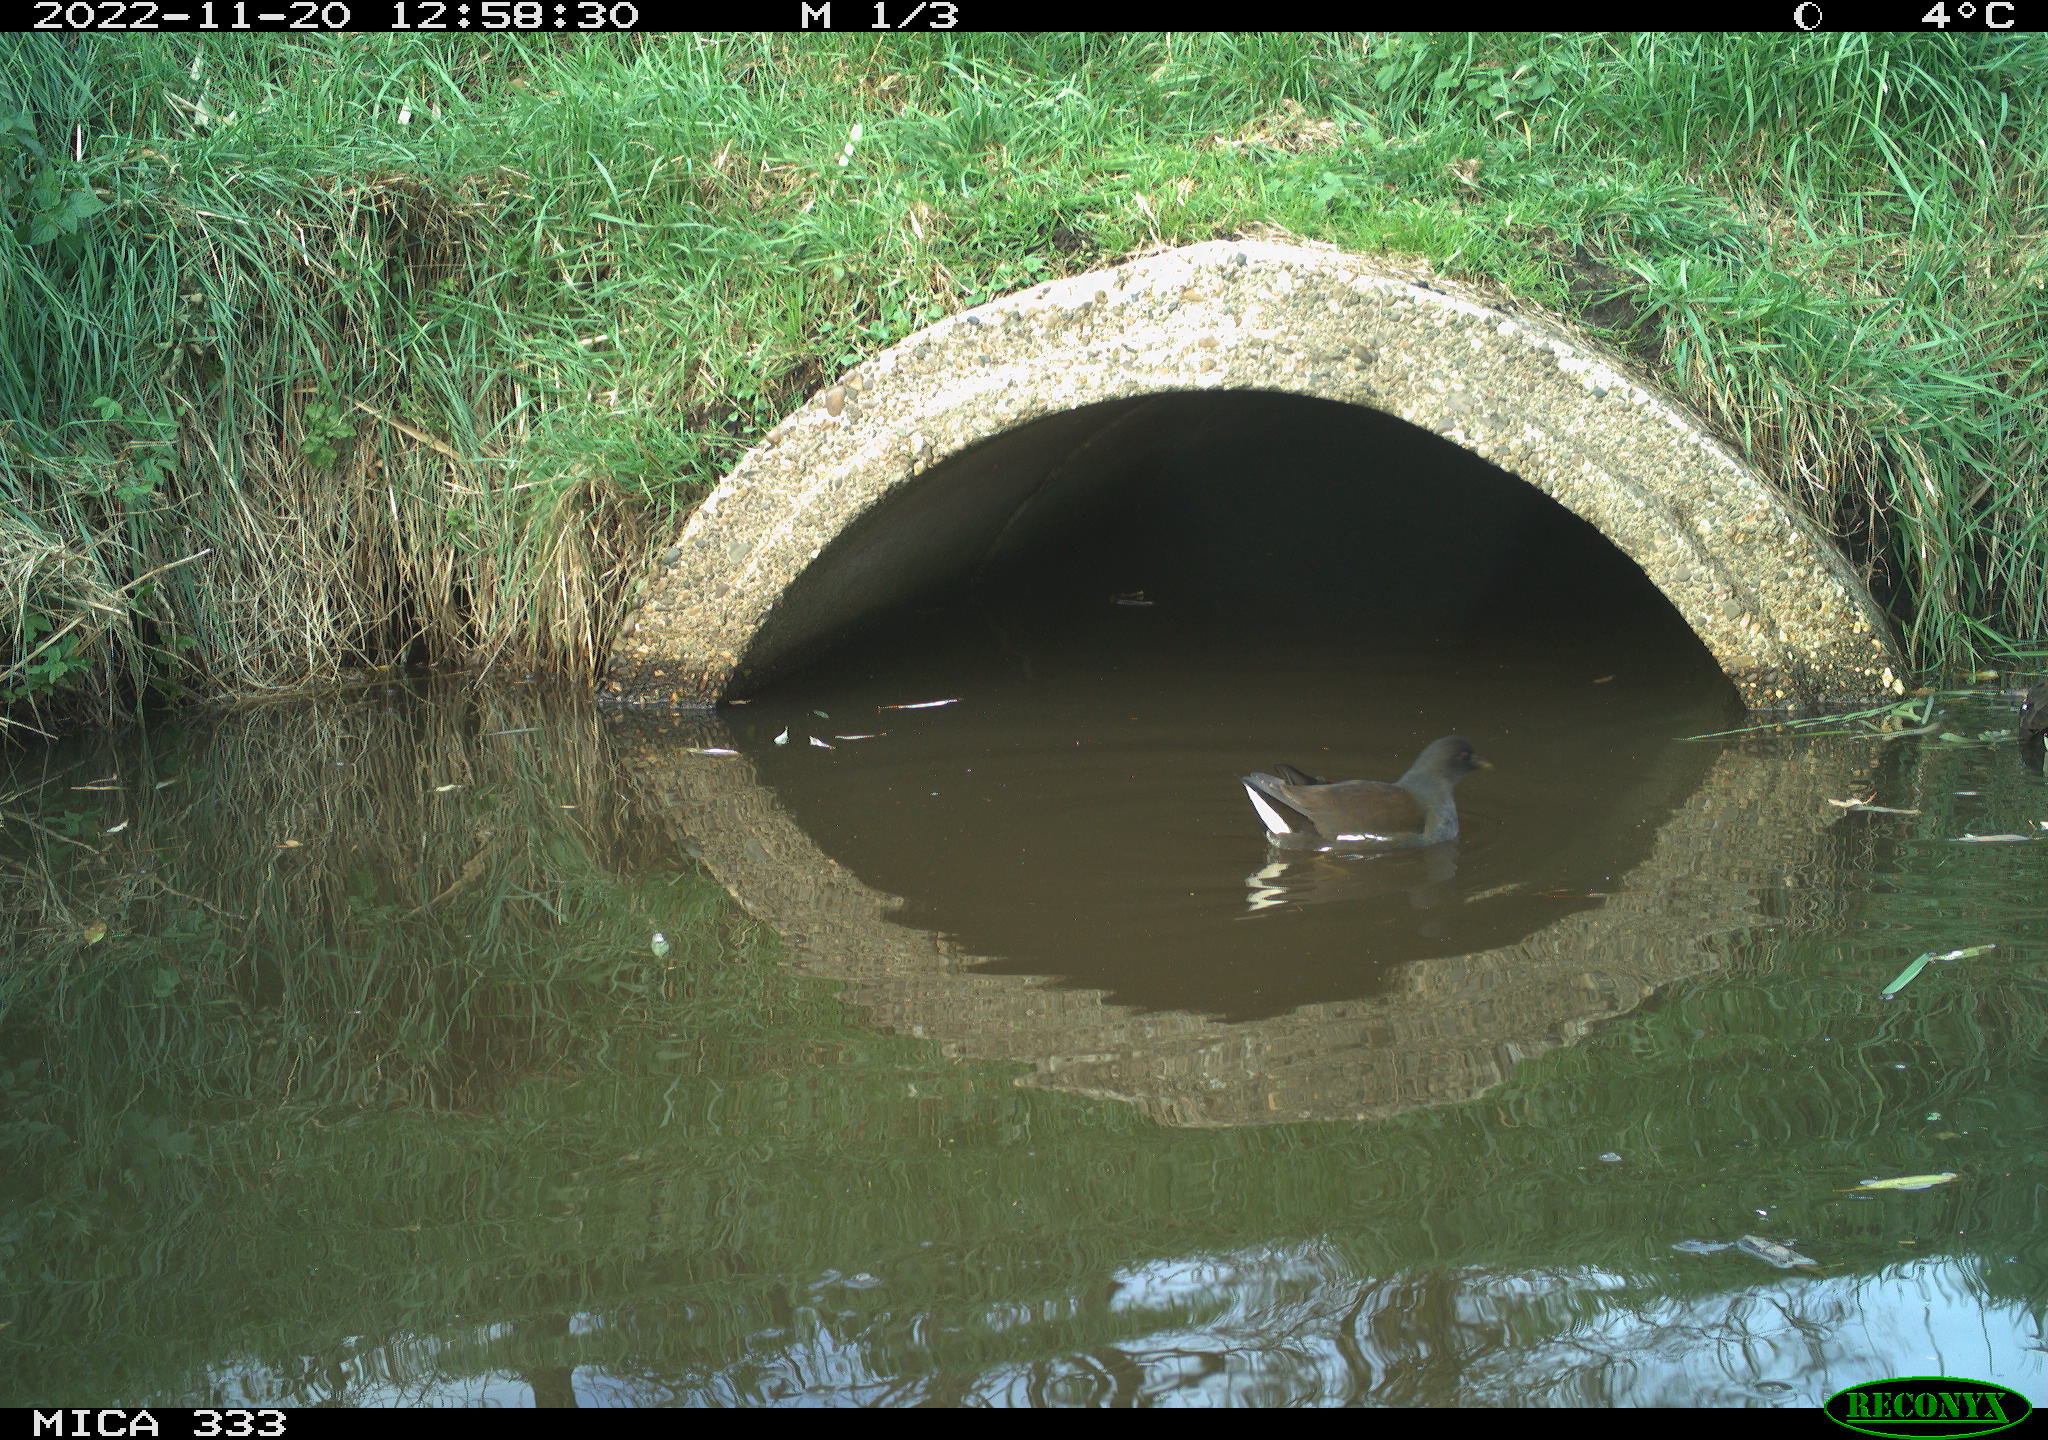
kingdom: Animalia
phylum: Chordata
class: Aves
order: Gruiformes
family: Rallidae
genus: Gallinula
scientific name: Gallinula chloropus
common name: Common moorhen
